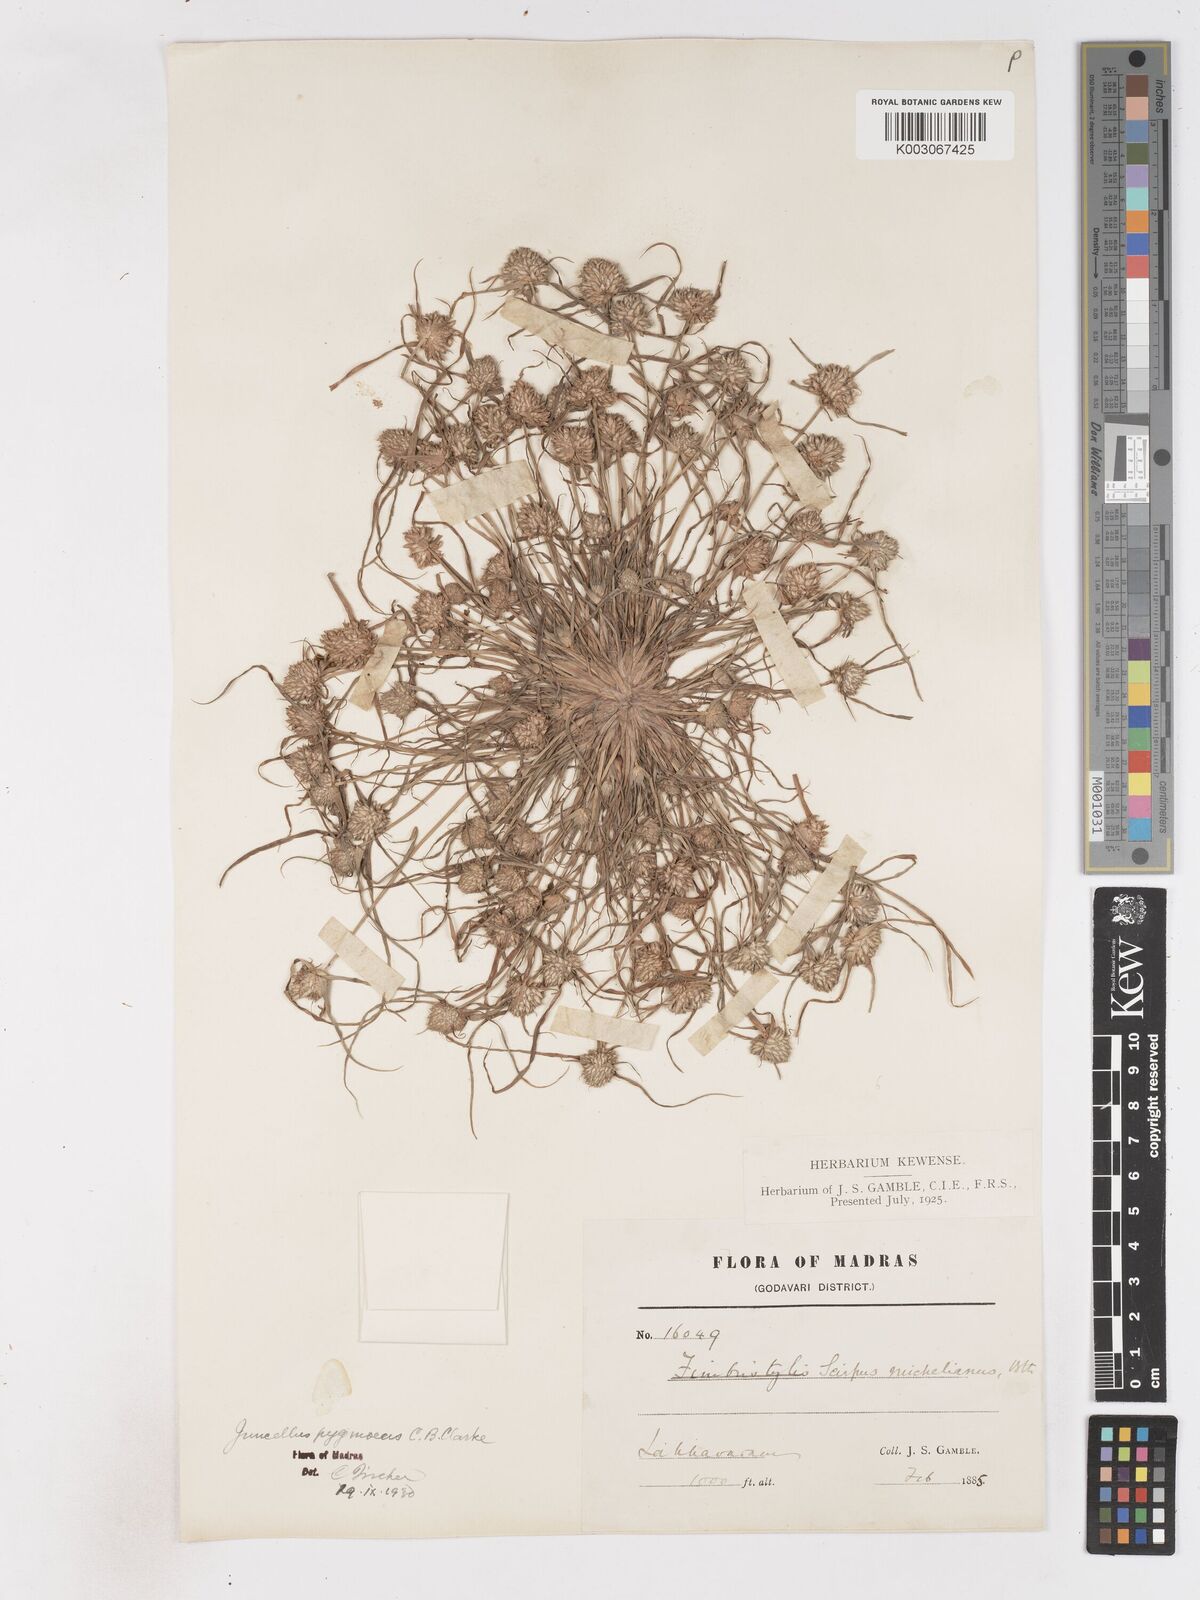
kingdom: Plantae
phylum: Tracheophyta
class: Liliopsida
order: Poales
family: Cyperaceae
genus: Cyperus
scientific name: Cyperus michelianus
